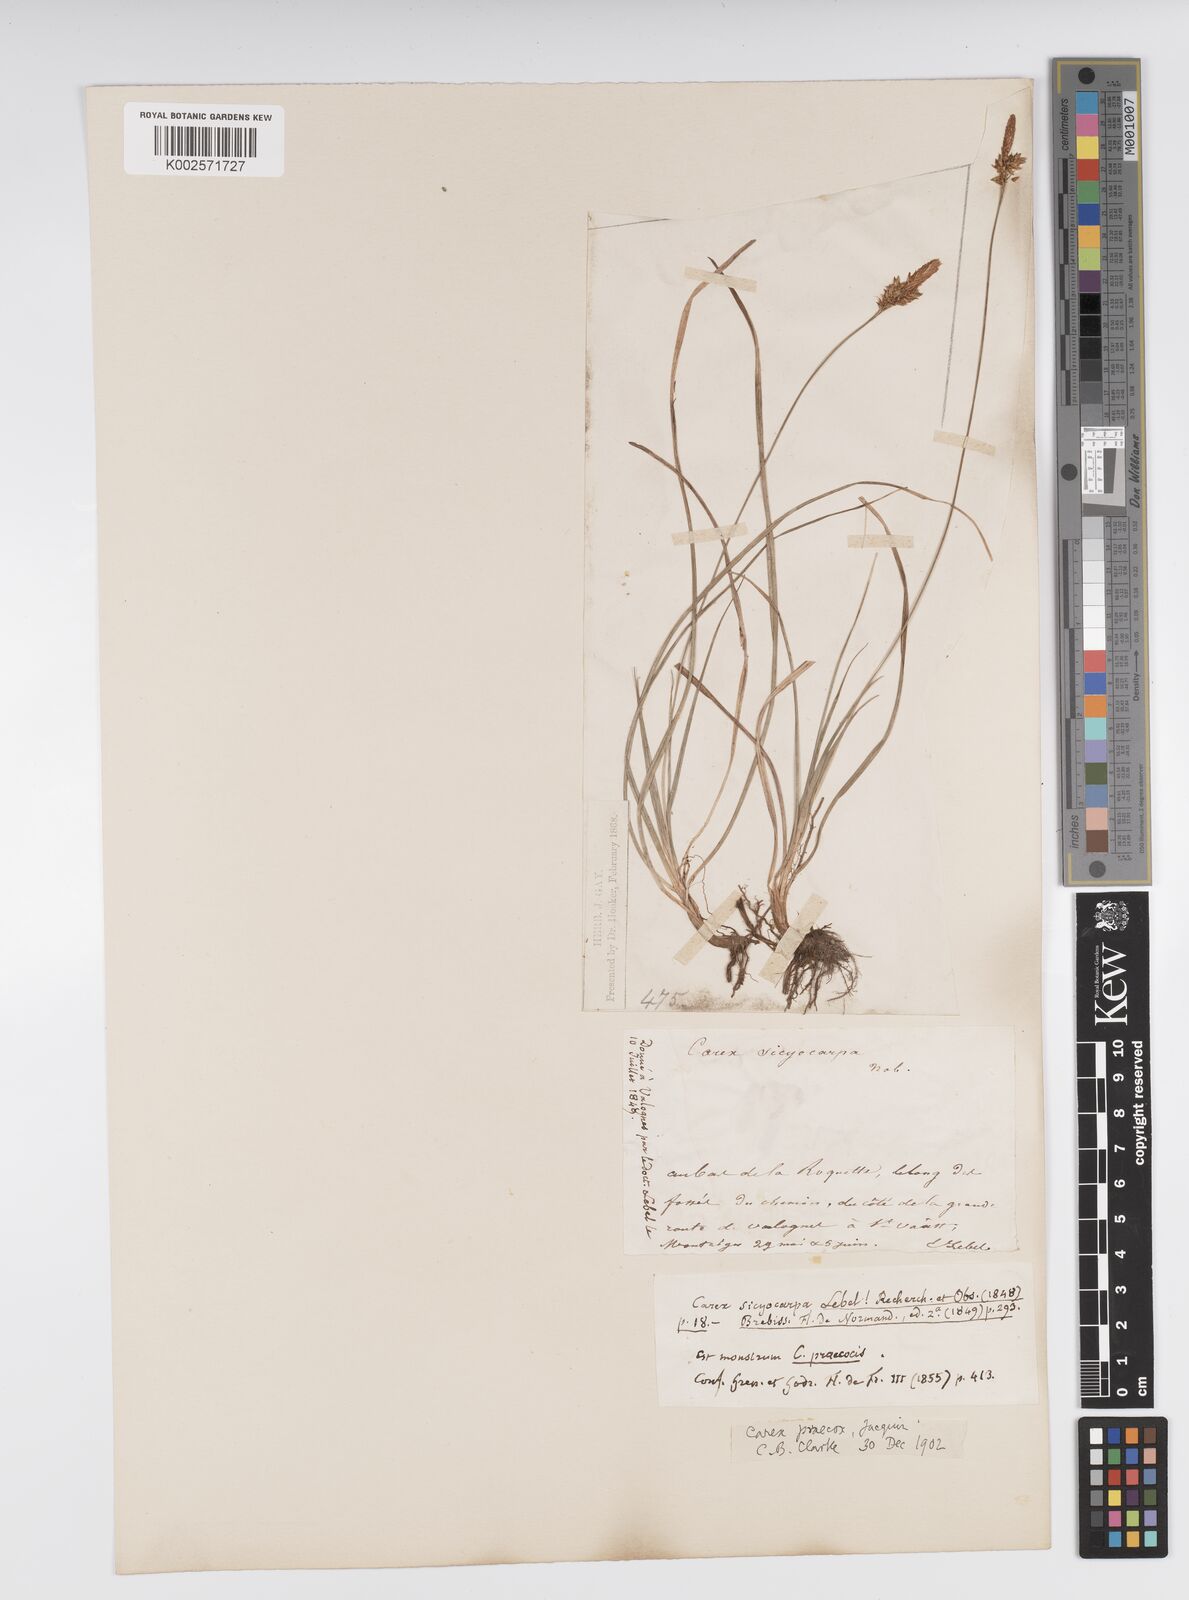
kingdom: Plantae
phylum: Tracheophyta
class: Liliopsida
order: Poales
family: Cyperaceae
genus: Carex
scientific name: Carex caryophyllea
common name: Spring sedge
